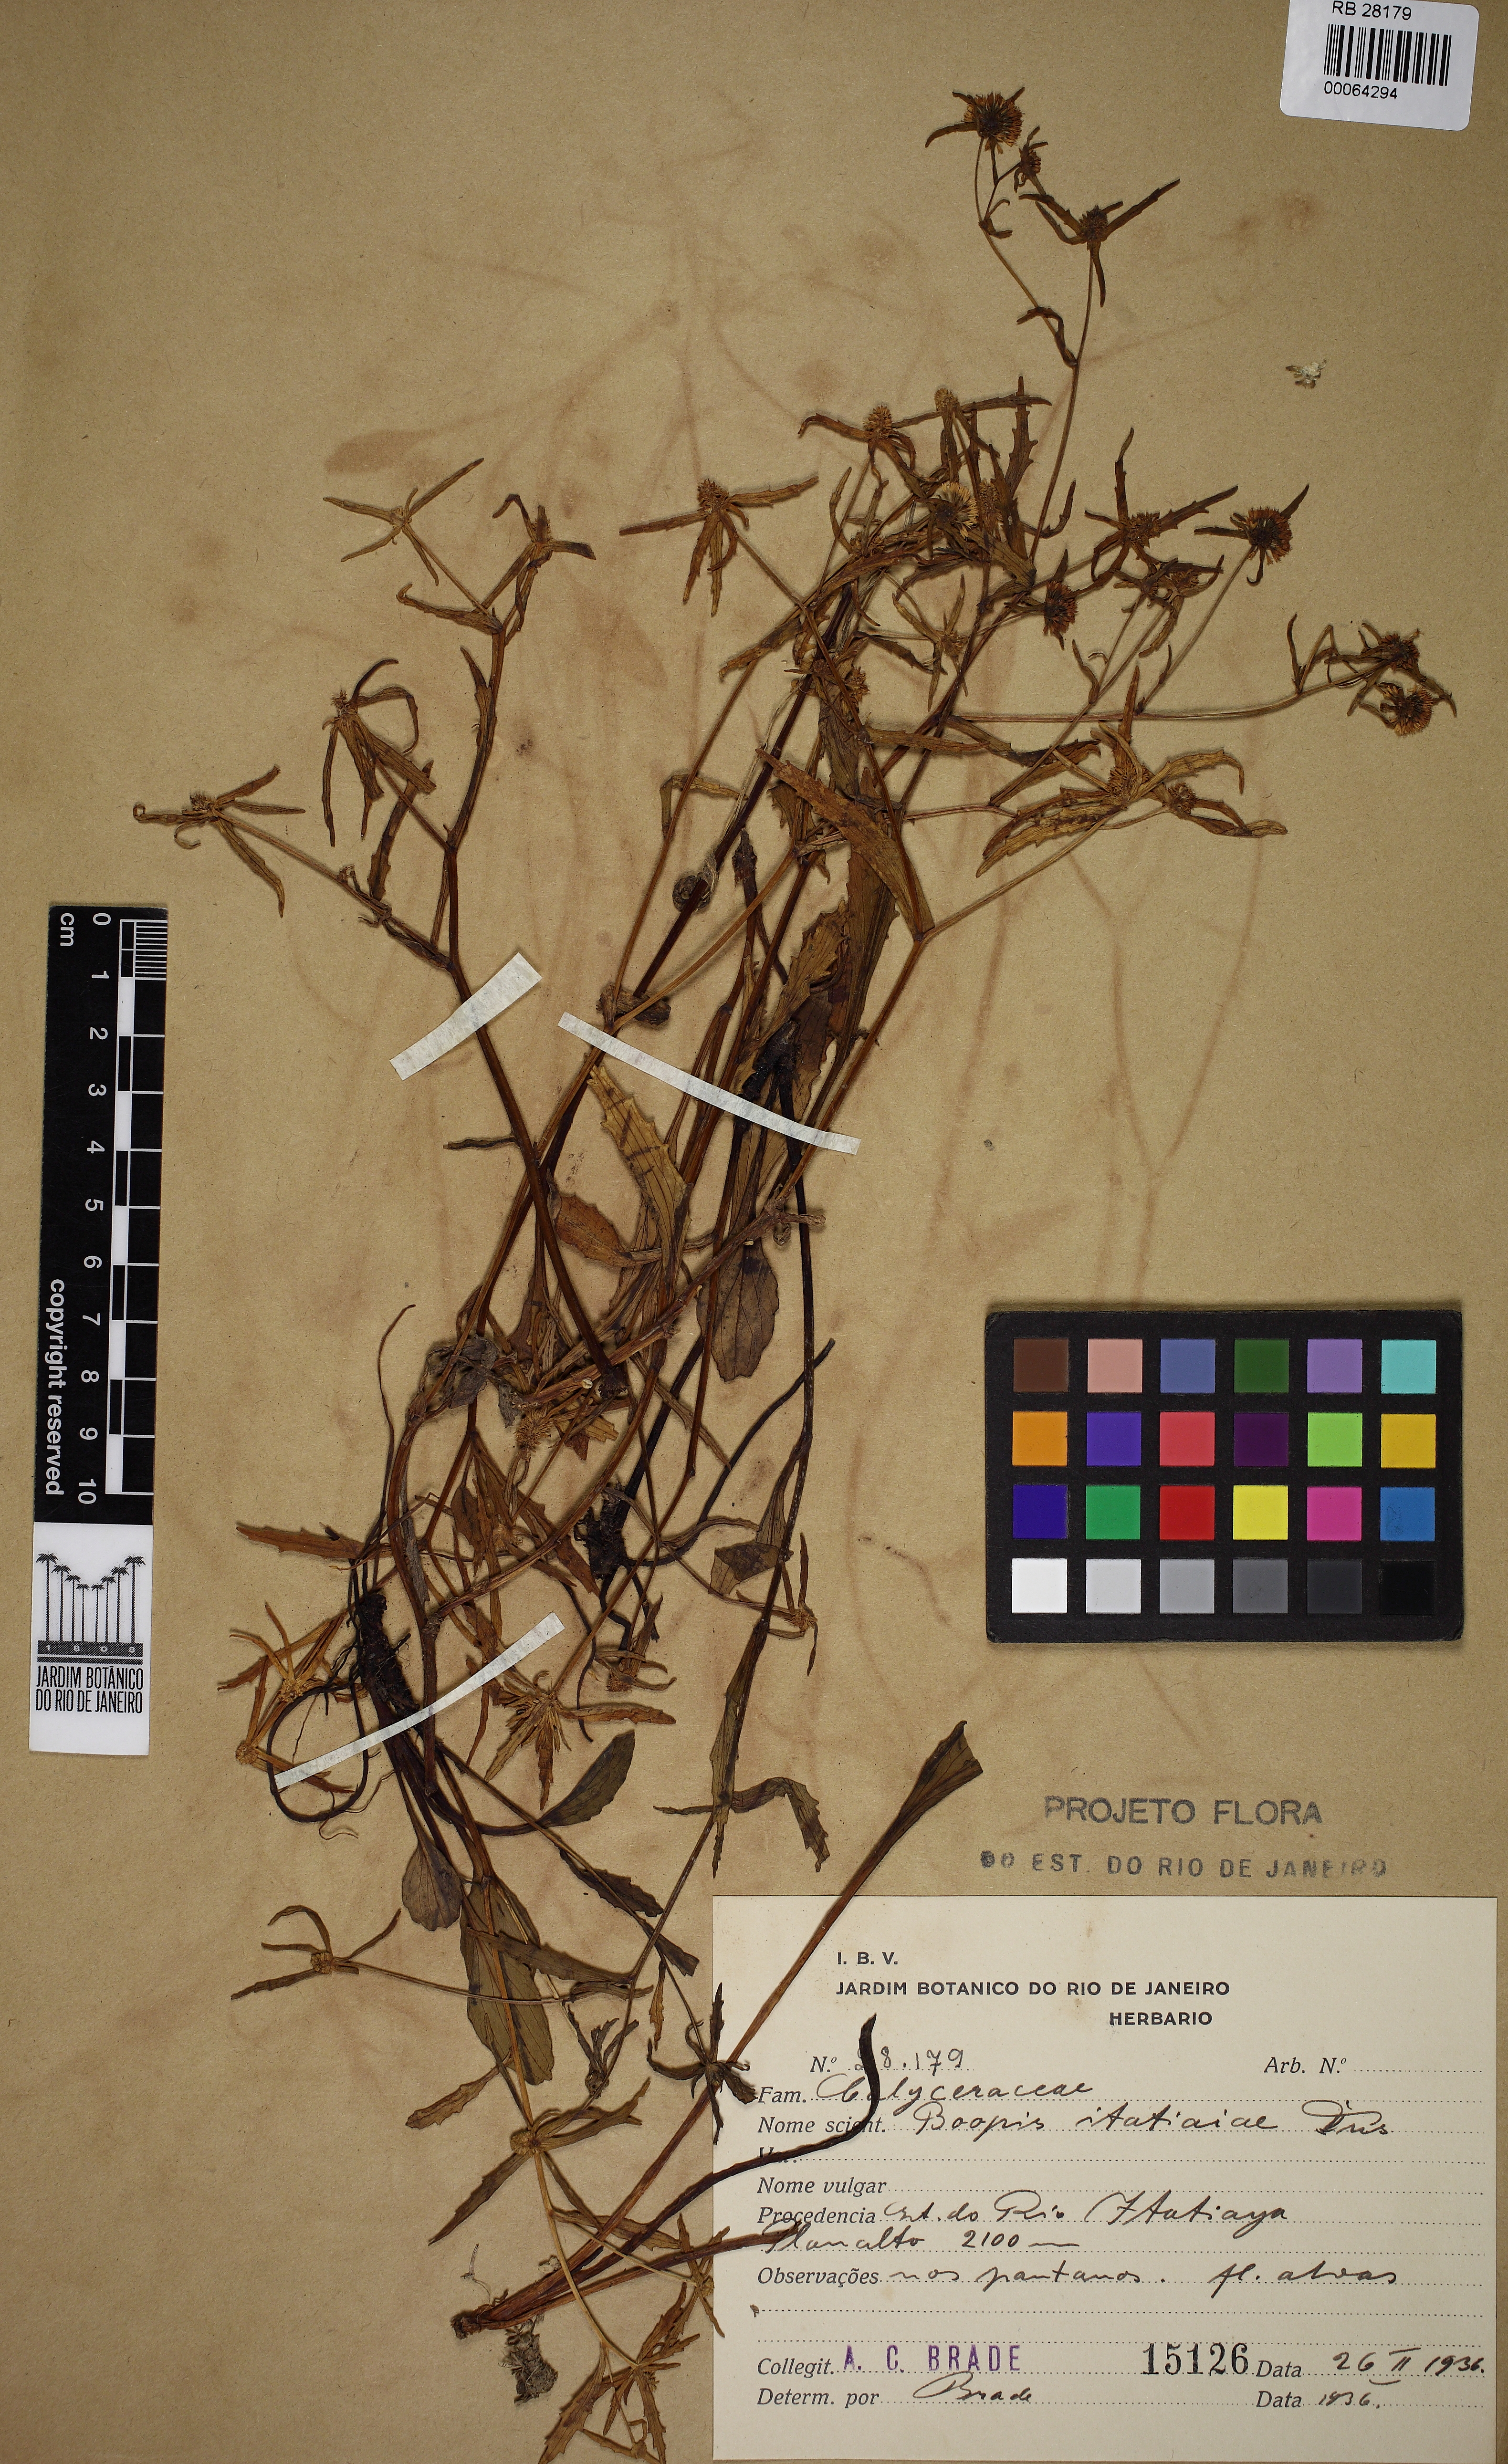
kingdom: Plantae
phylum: Tracheophyta
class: Magnoliopsida
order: Asterales
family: Calyceraceae
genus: Acicarpha
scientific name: Acicarpha itatiaiae
